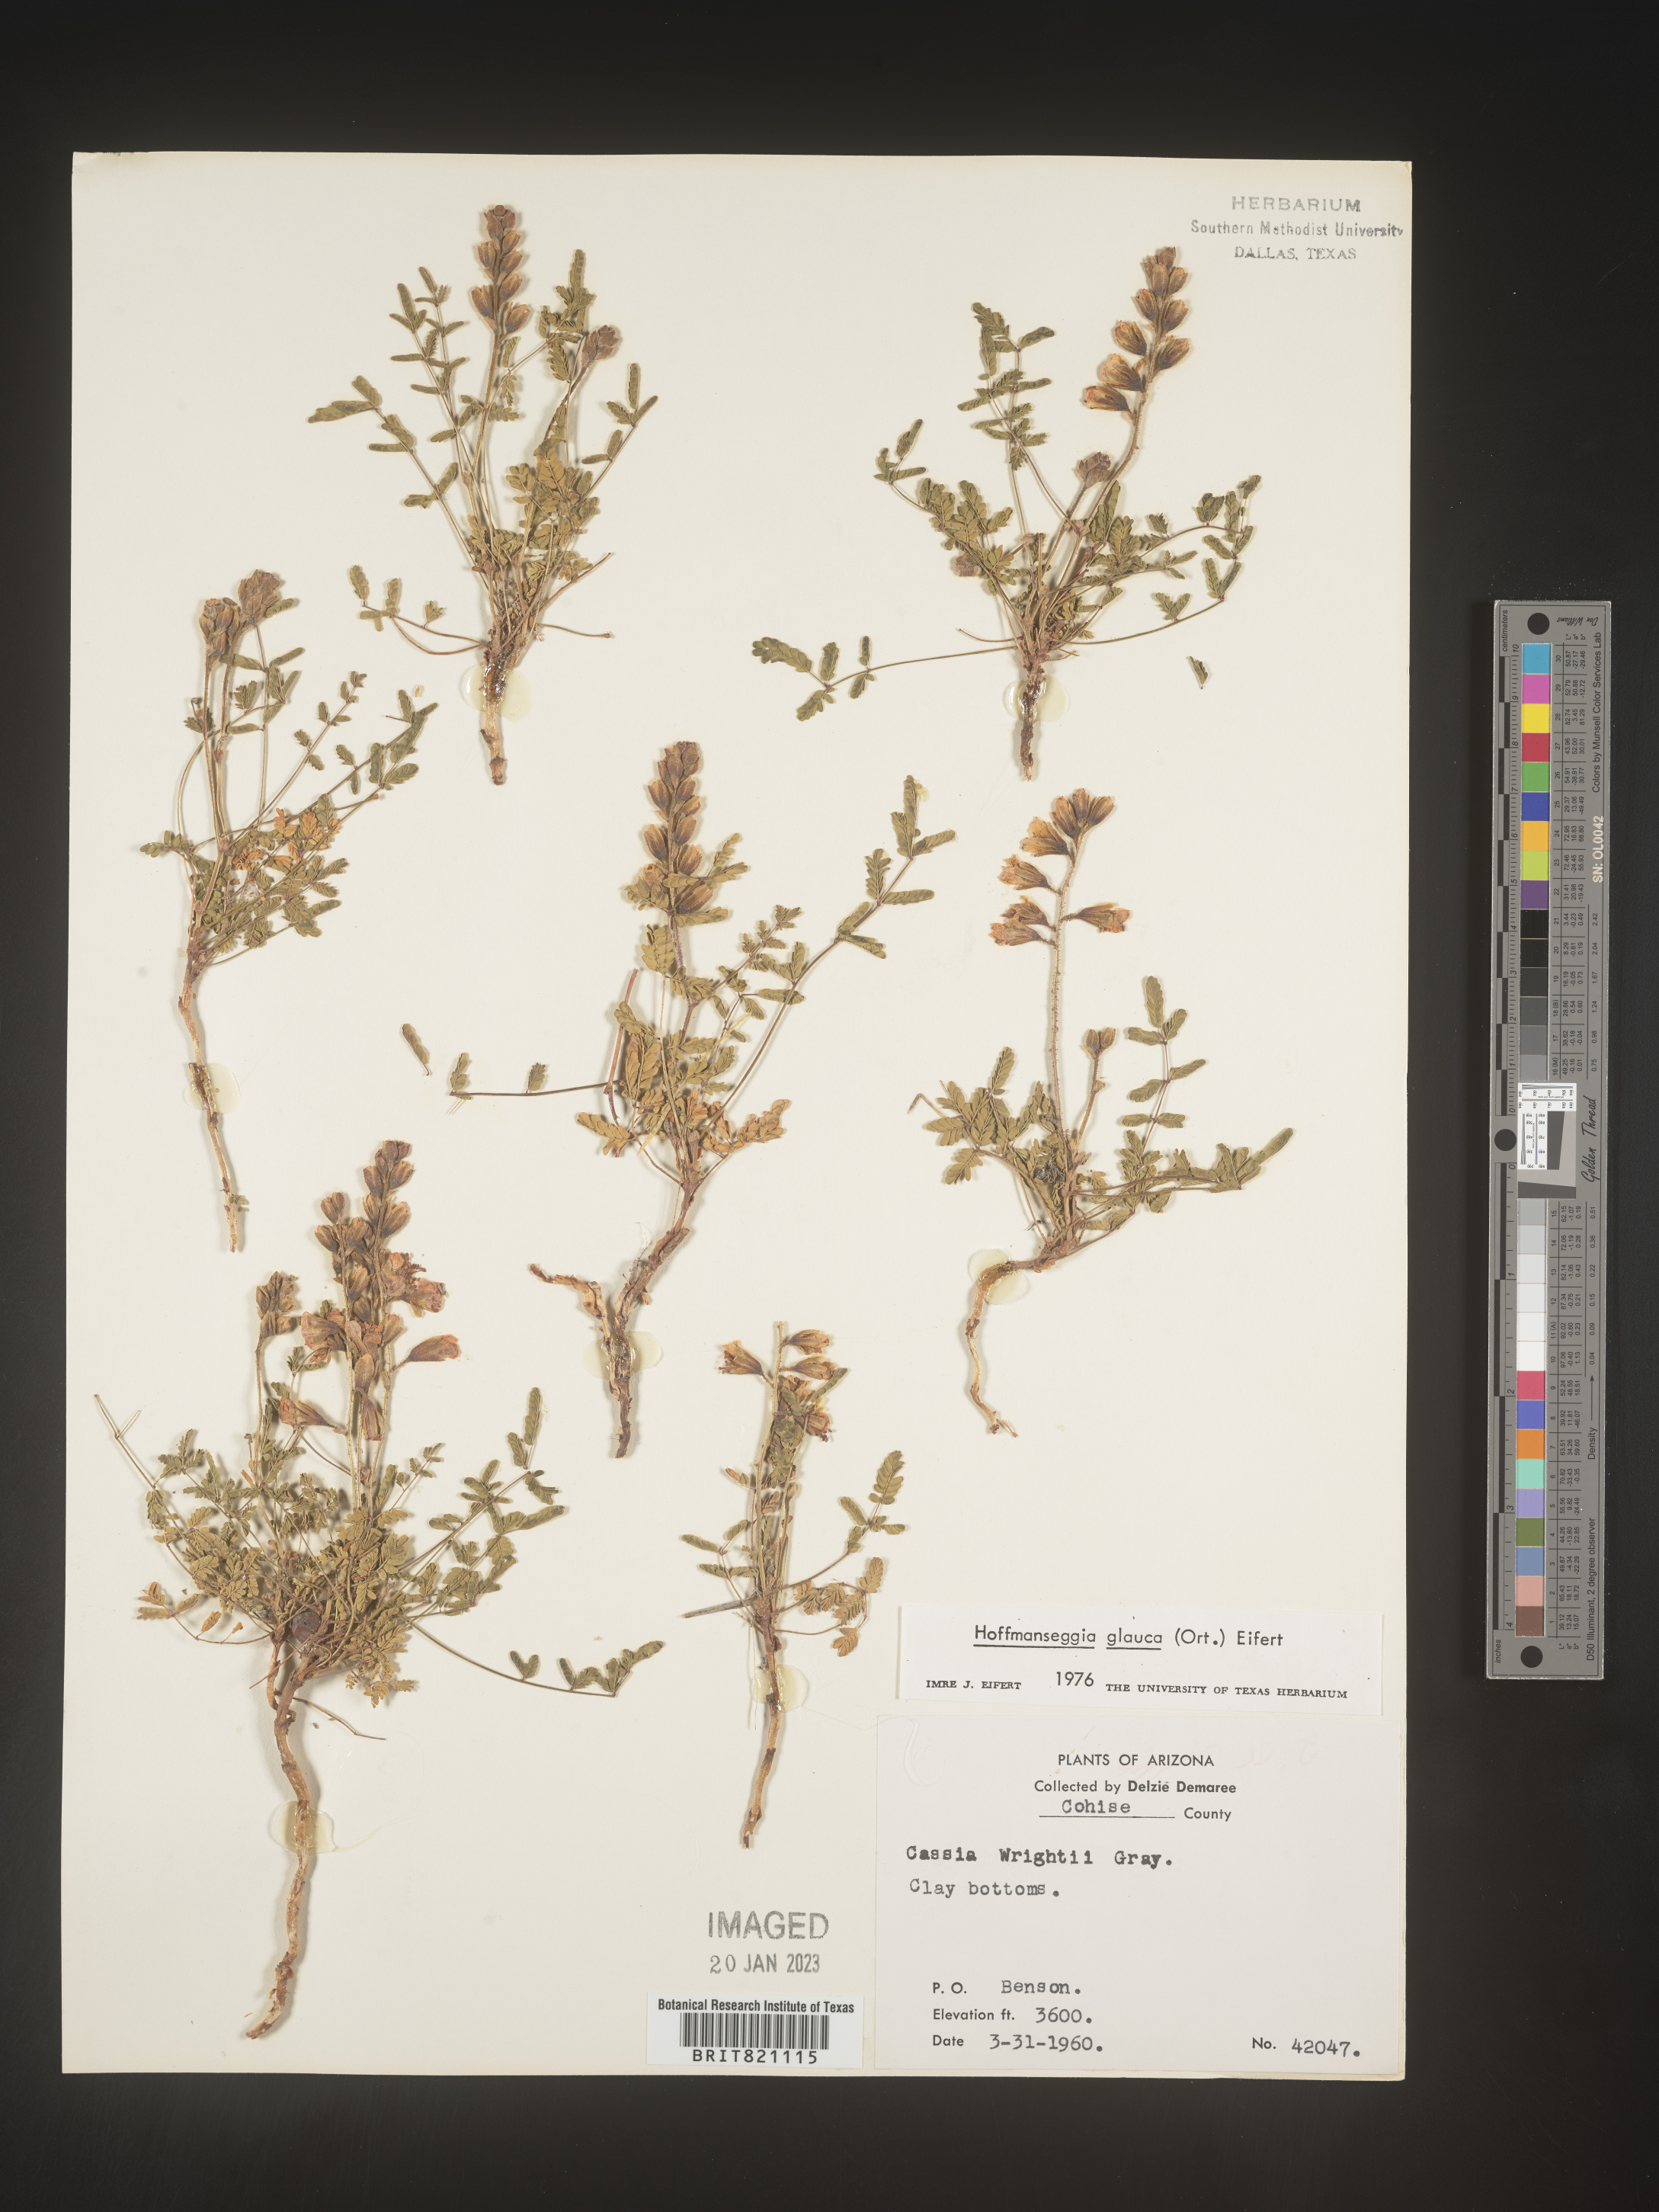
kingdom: Plantae
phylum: Tracheophyta
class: Magnoliopsida
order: Fabales
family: Fabaceae
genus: Hoffmannseggia
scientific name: Hoffmannseggia
